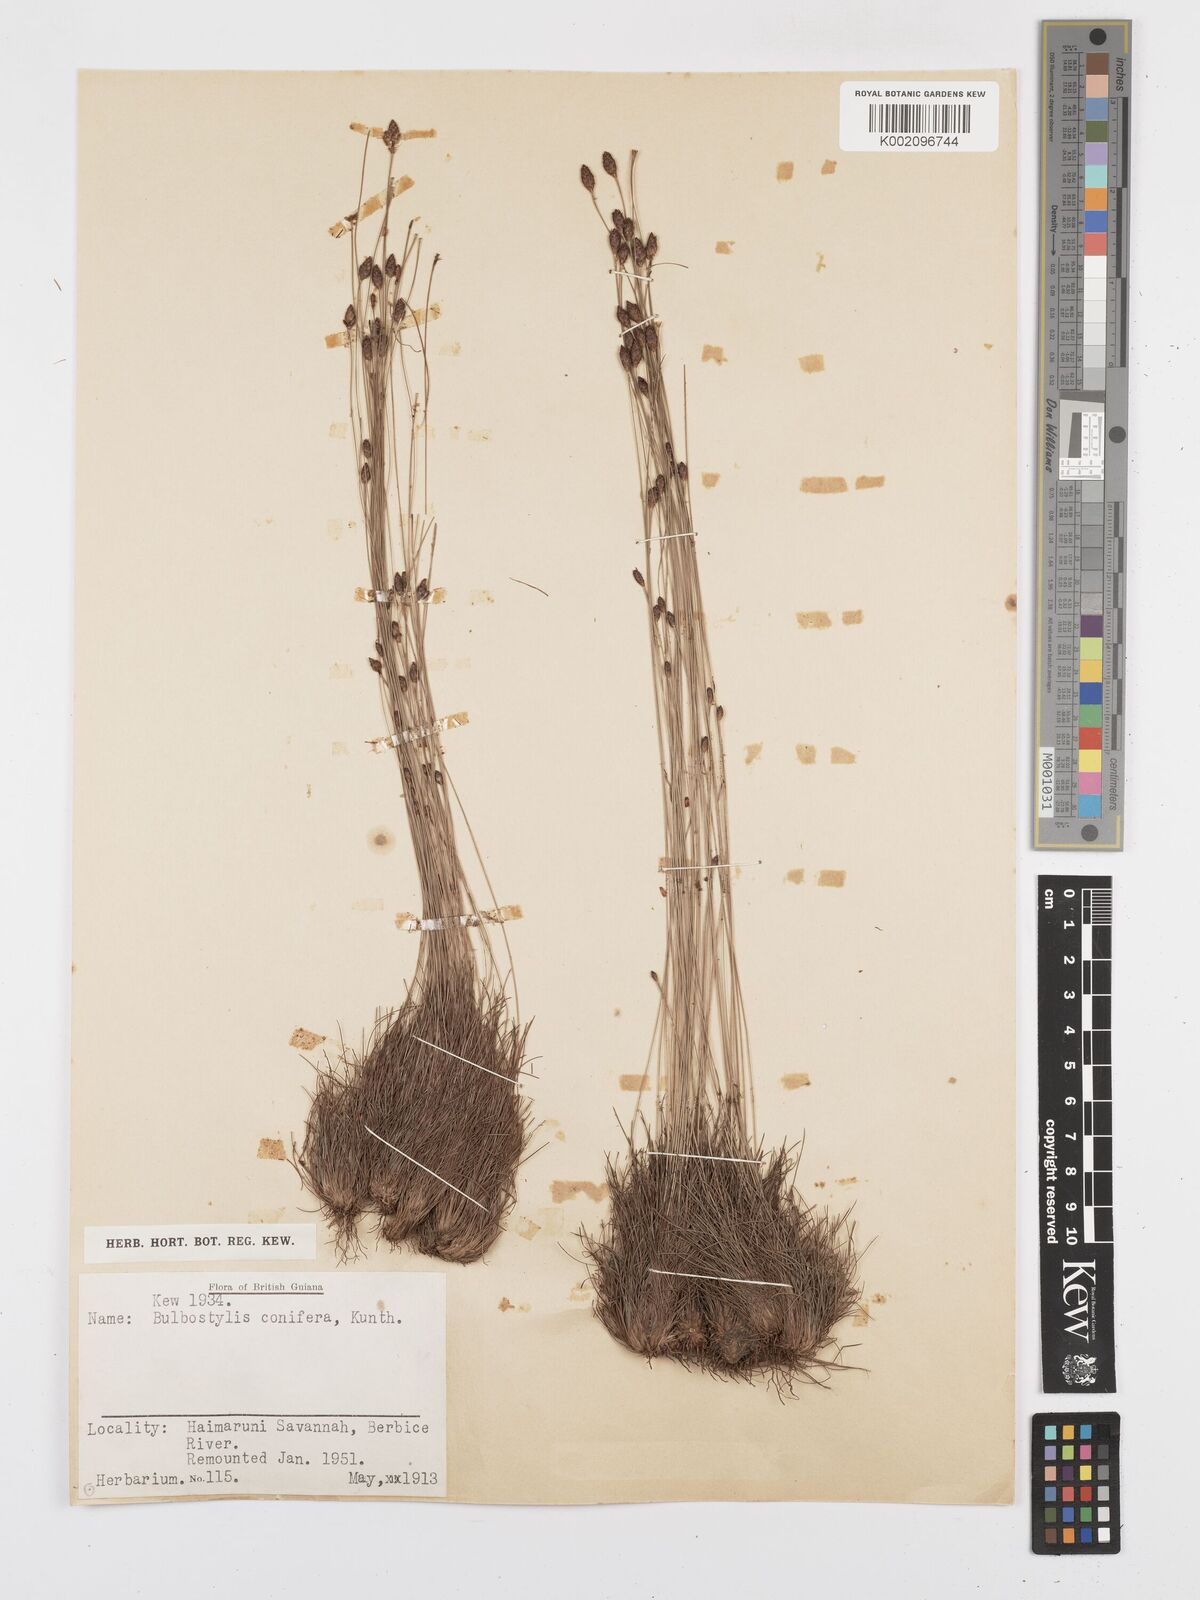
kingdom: Plantae
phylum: Tracheophyta
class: Liliopsida
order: Poales
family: Cyperaceae
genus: Bulbostylis
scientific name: Bulbostylis conifera
